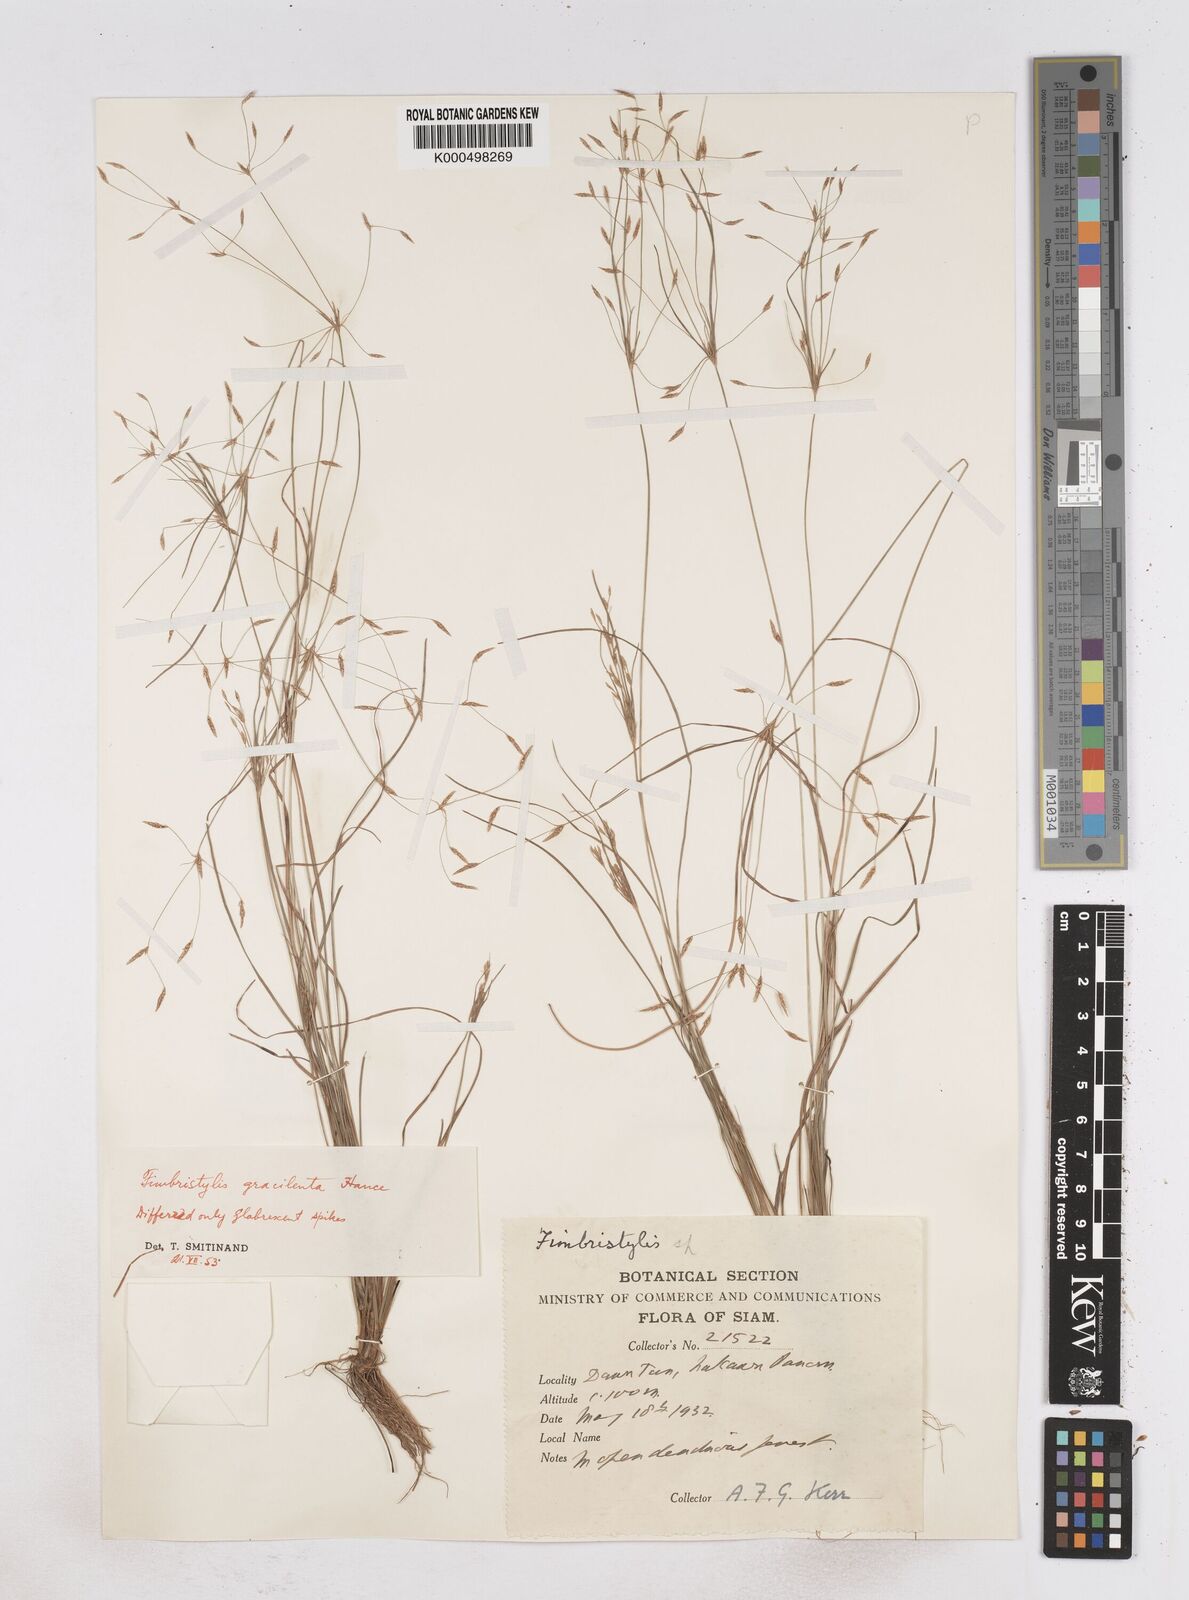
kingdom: Plantae
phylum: Tracheophyta
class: Liliopsida
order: Poales
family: Cyperaceae
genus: Fimbristylis
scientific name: Fimbristylis gracilenta
